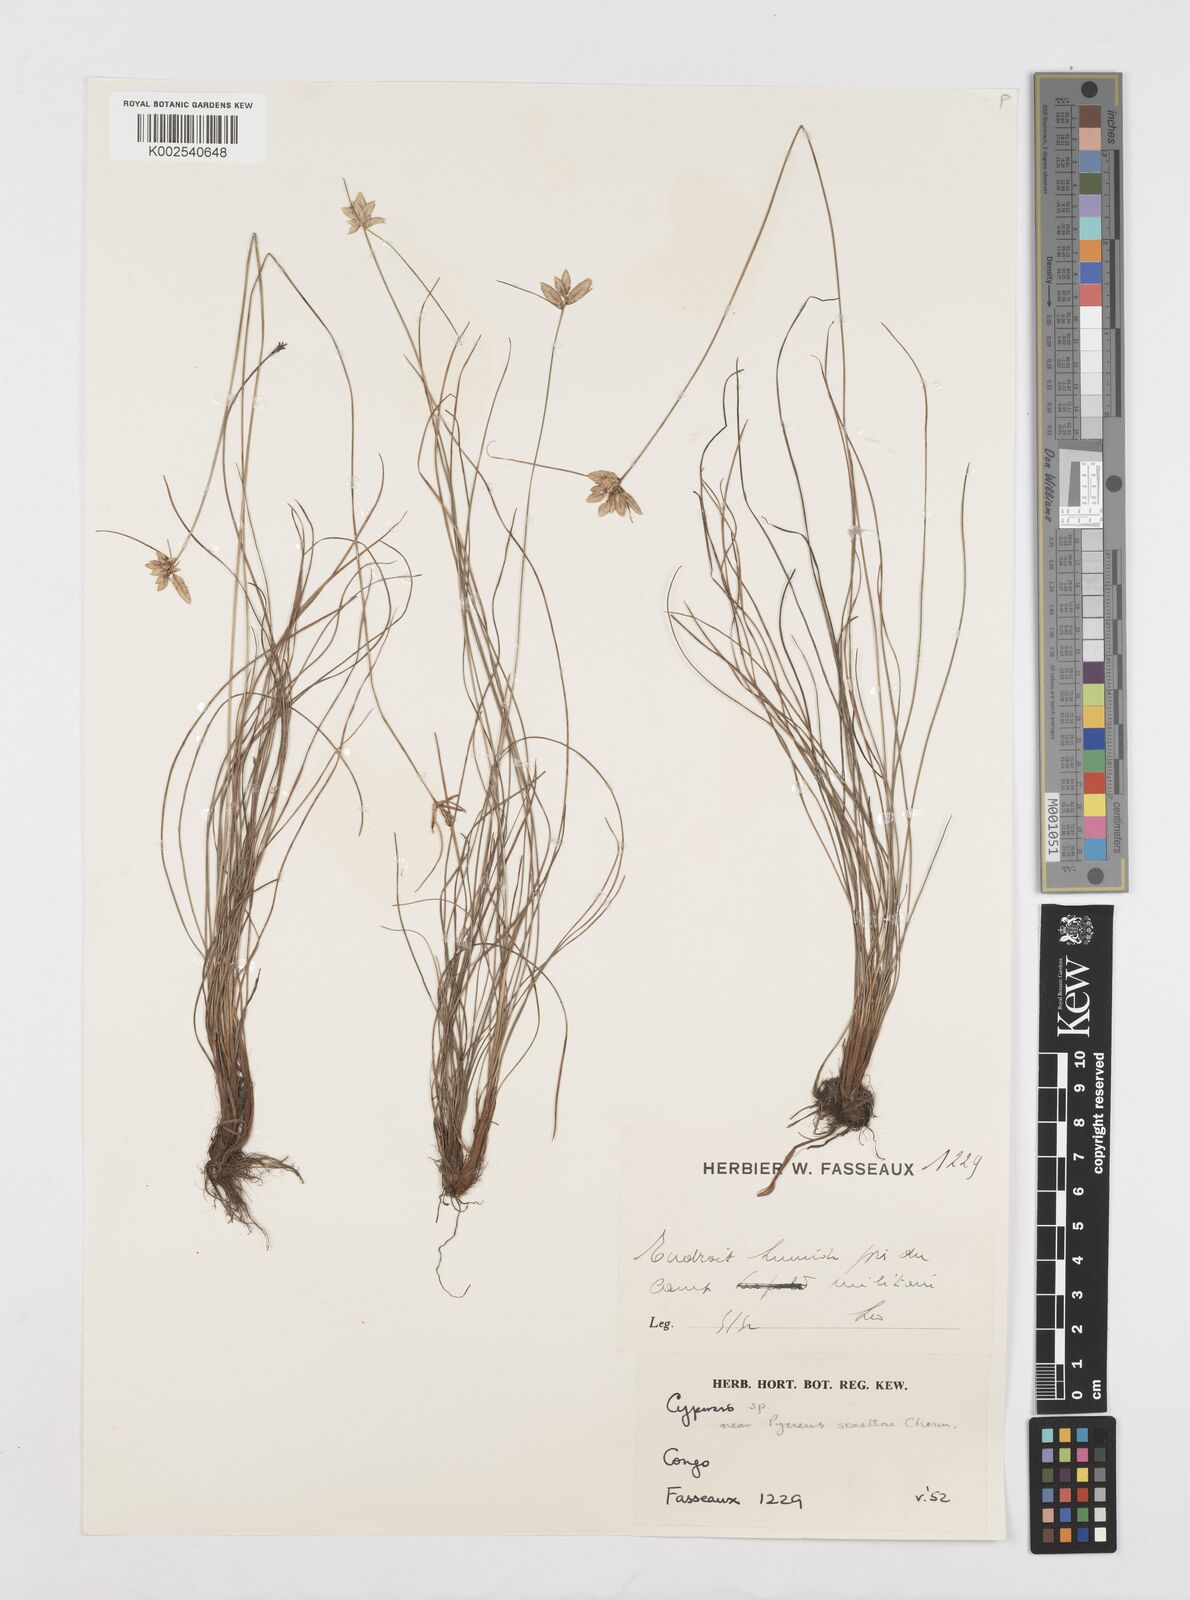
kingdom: Plantae
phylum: Tracheophyta
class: Liliopsida
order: Poales
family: Cyperaceae
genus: Cyperus
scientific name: Cyperus scaettae
